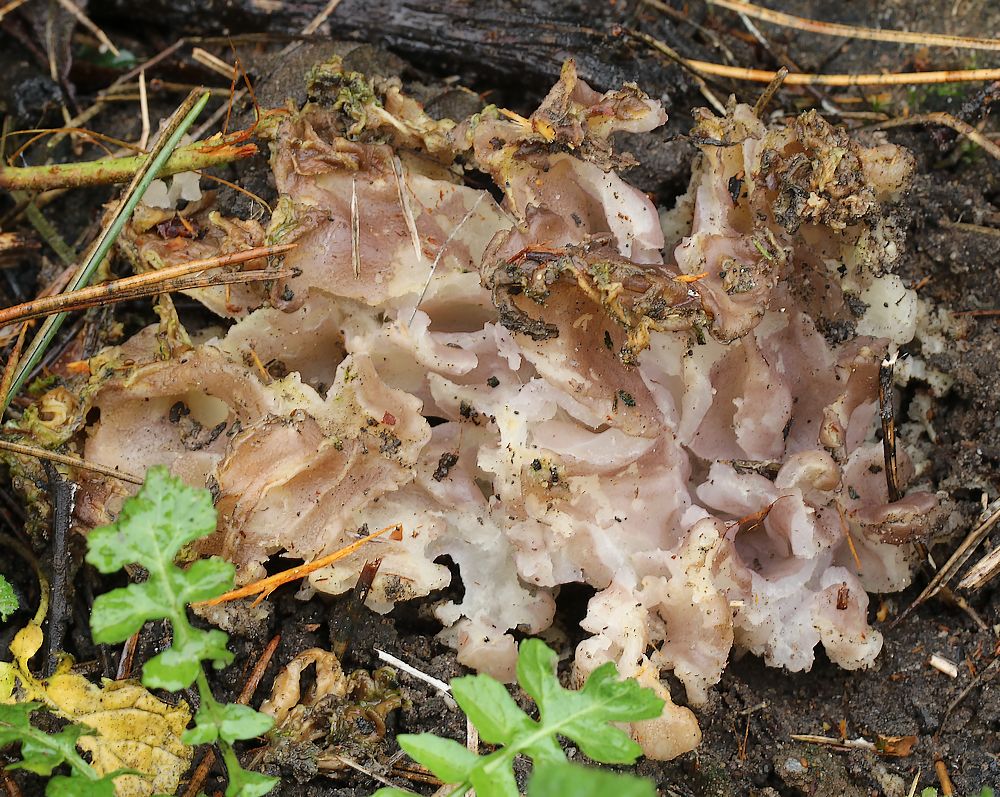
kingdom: Fungi
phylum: Ascomycota
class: Pezizomycetes
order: Pezizales
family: Pezizaceae
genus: Daleomyces
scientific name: Daleomyces phillipsii
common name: blomkåls-bægersvamp
